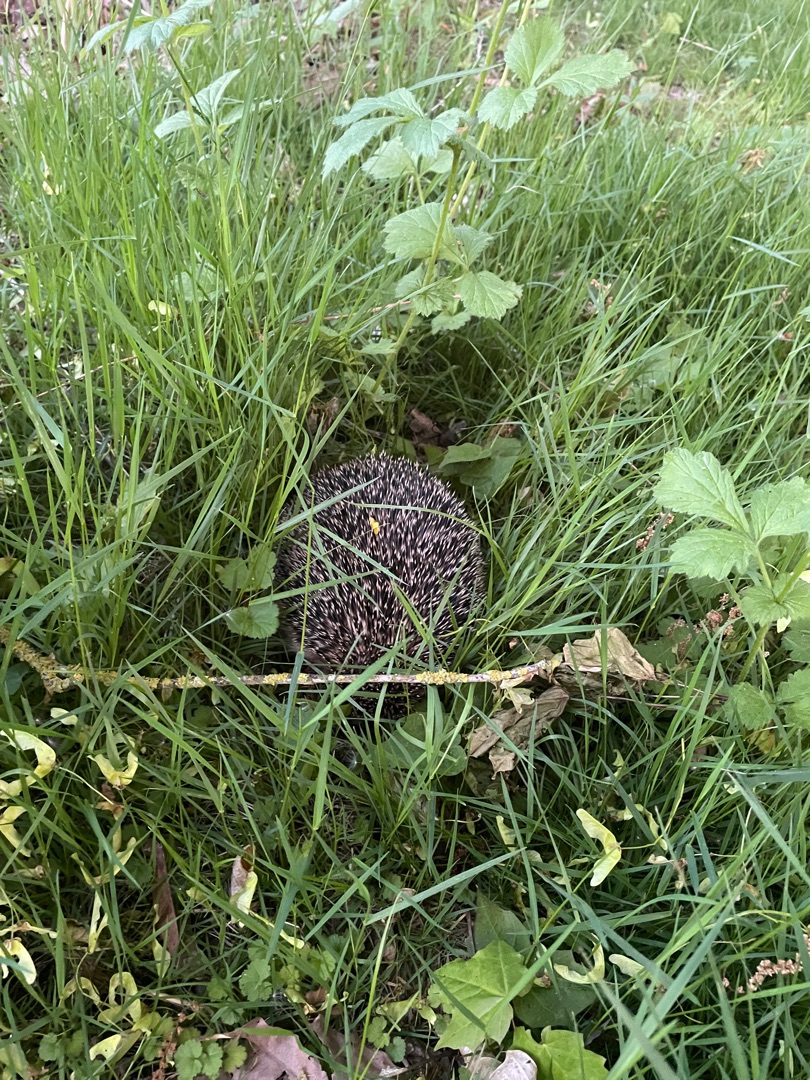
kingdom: Animalia
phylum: Chordata
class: Mammalia
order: Erinaceomorpha
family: Erinaceidae
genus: Erinaceus
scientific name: Erinaceus europaeus
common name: Pindsvin
